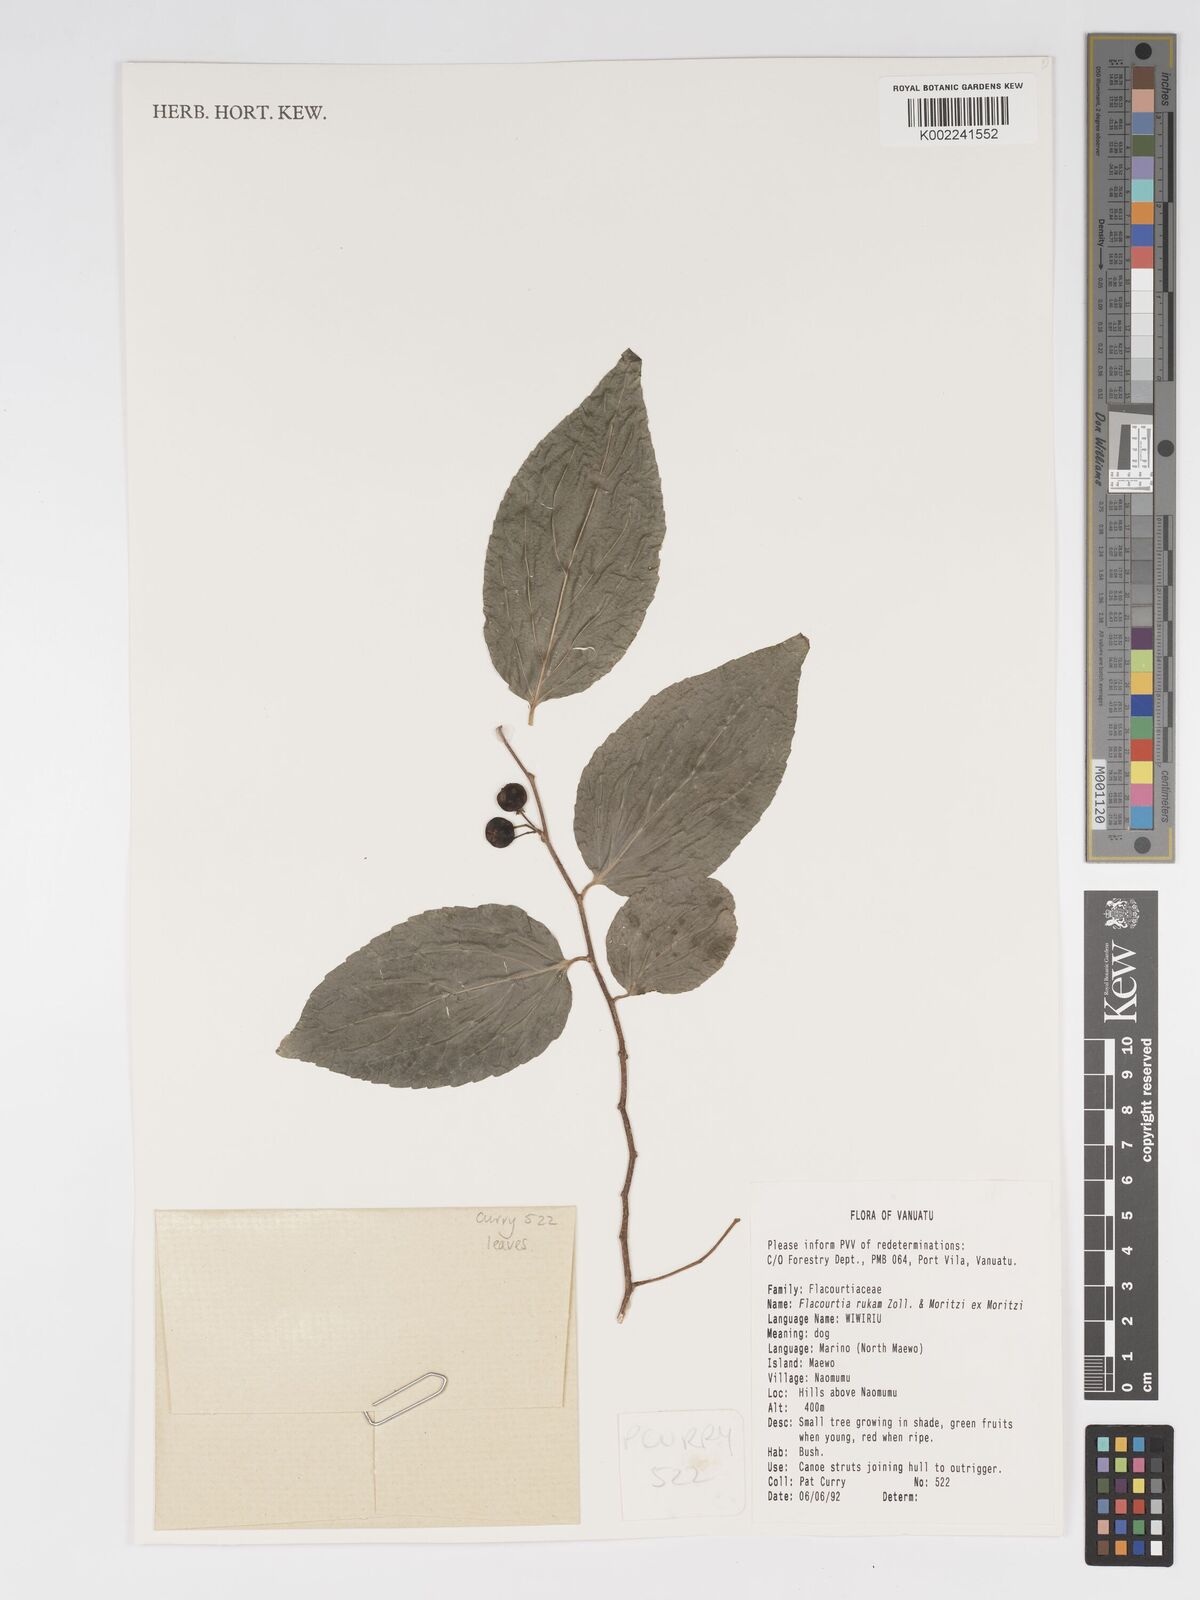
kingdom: Plantae
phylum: Tracheophyta
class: Magnoliopsida
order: Malpighiales
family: Salicaceae
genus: Flacourtia
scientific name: Flacourtia rukam
